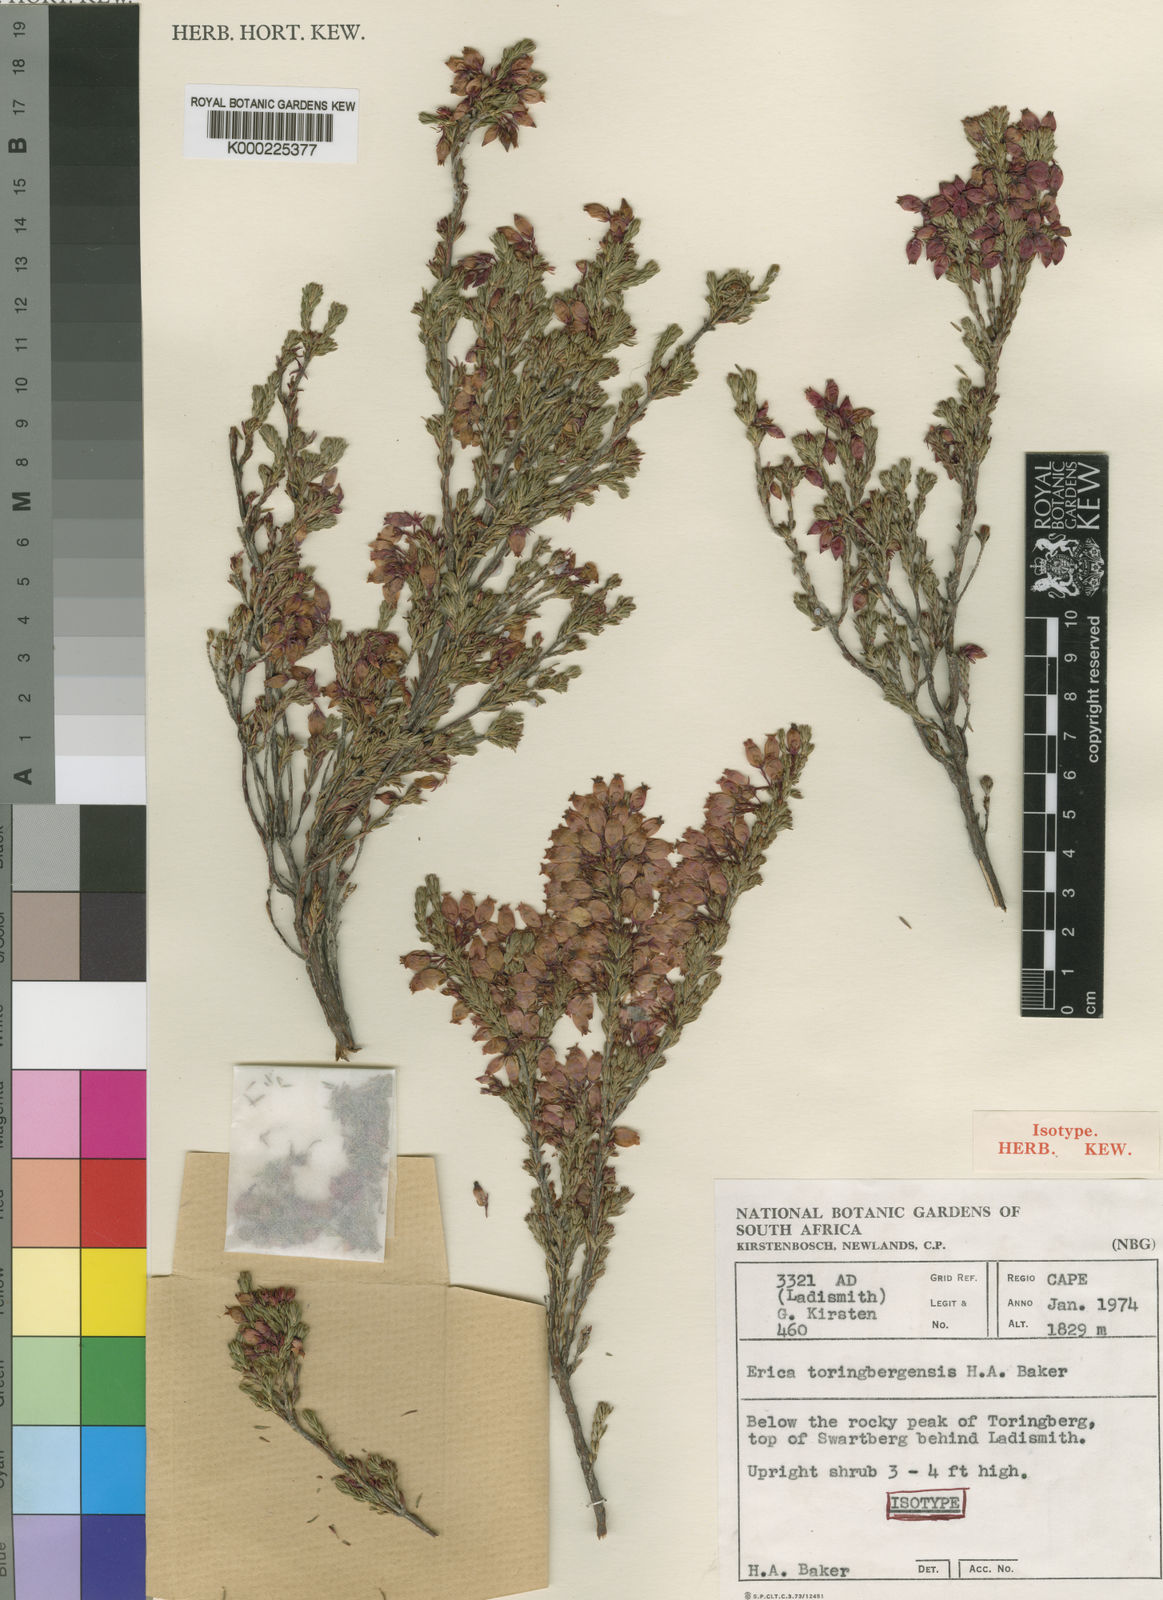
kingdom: Plantae
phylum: Tracheophyta
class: Magnoliopsida
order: Ericales
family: Ericaceae
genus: Erica
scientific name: Erica toringbergensis
